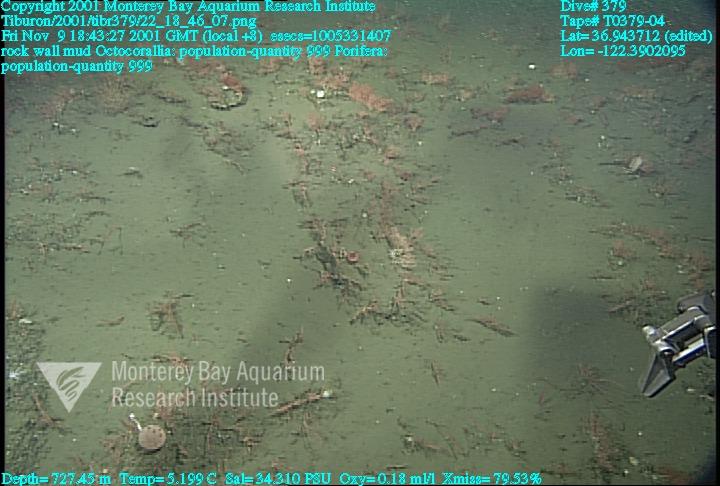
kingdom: Animalia
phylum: Porifera
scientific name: Porifera
